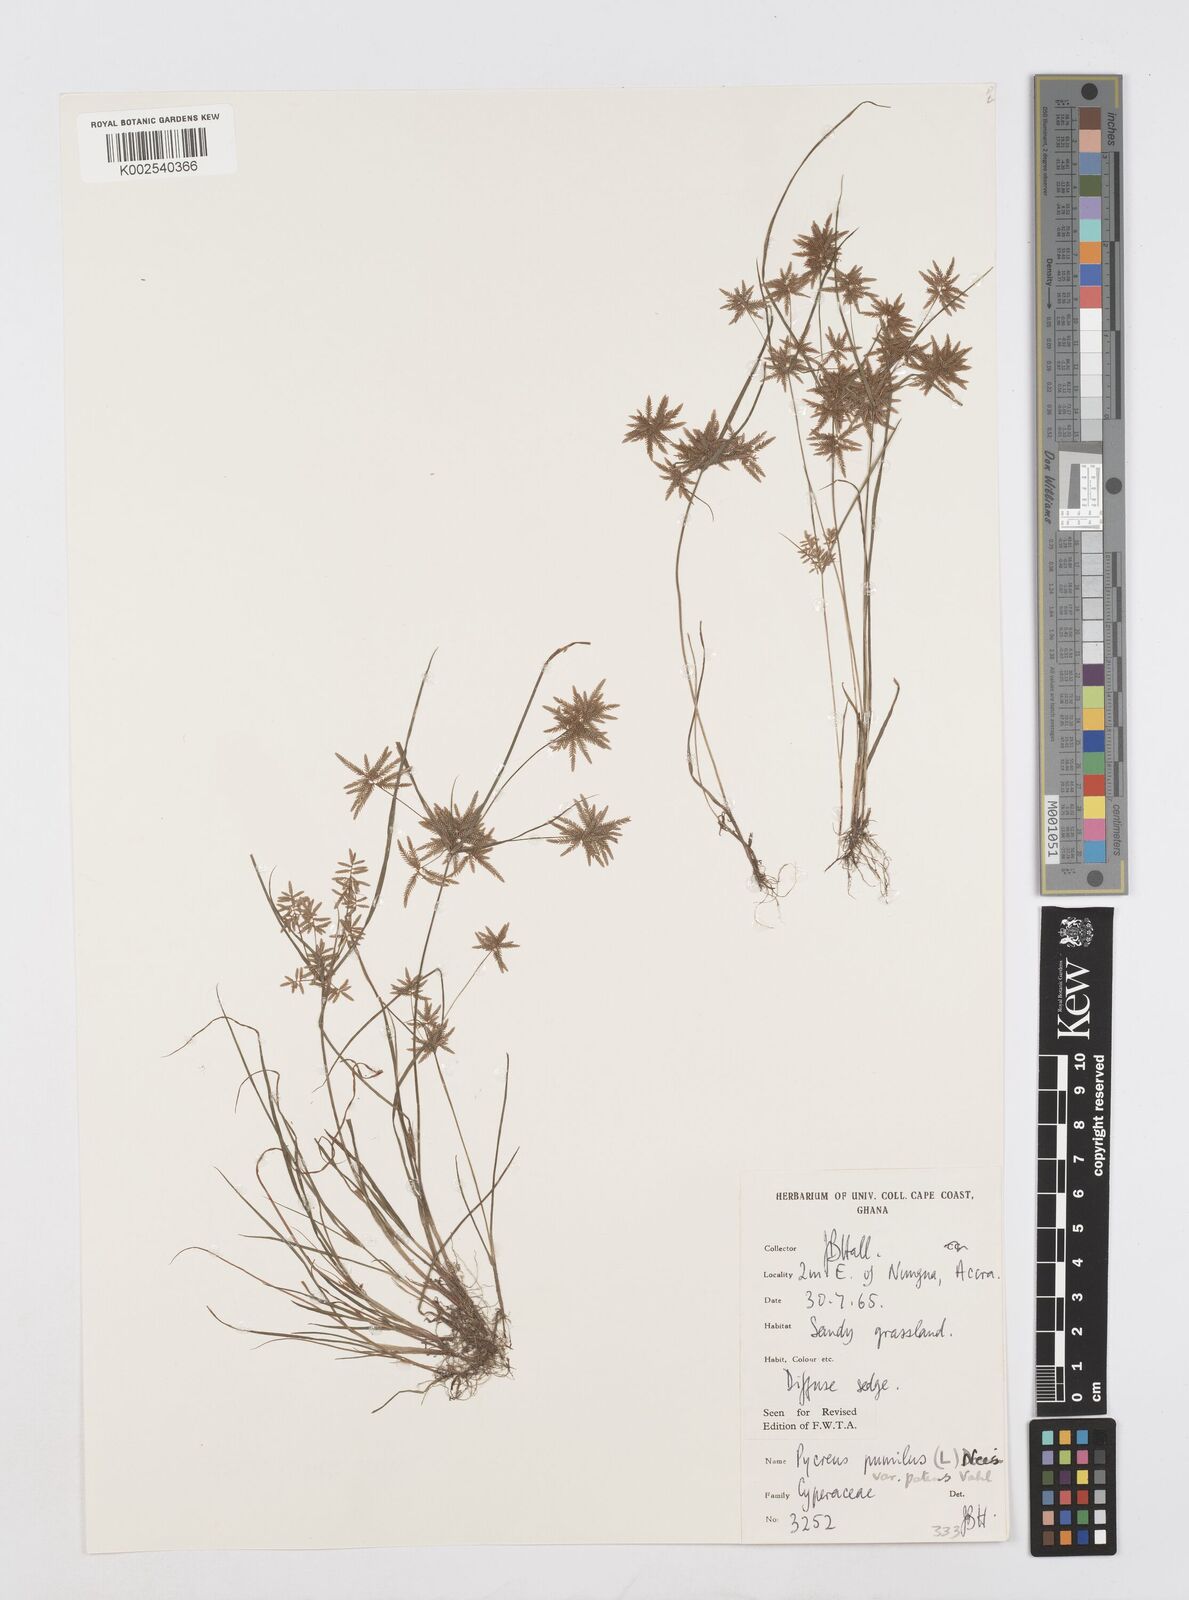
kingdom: Plantae
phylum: Tracheophyta
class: Liliopsida
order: Poales
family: Cyperaceae
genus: Cyperus
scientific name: Cyperus pumilus
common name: Low flatsedge
